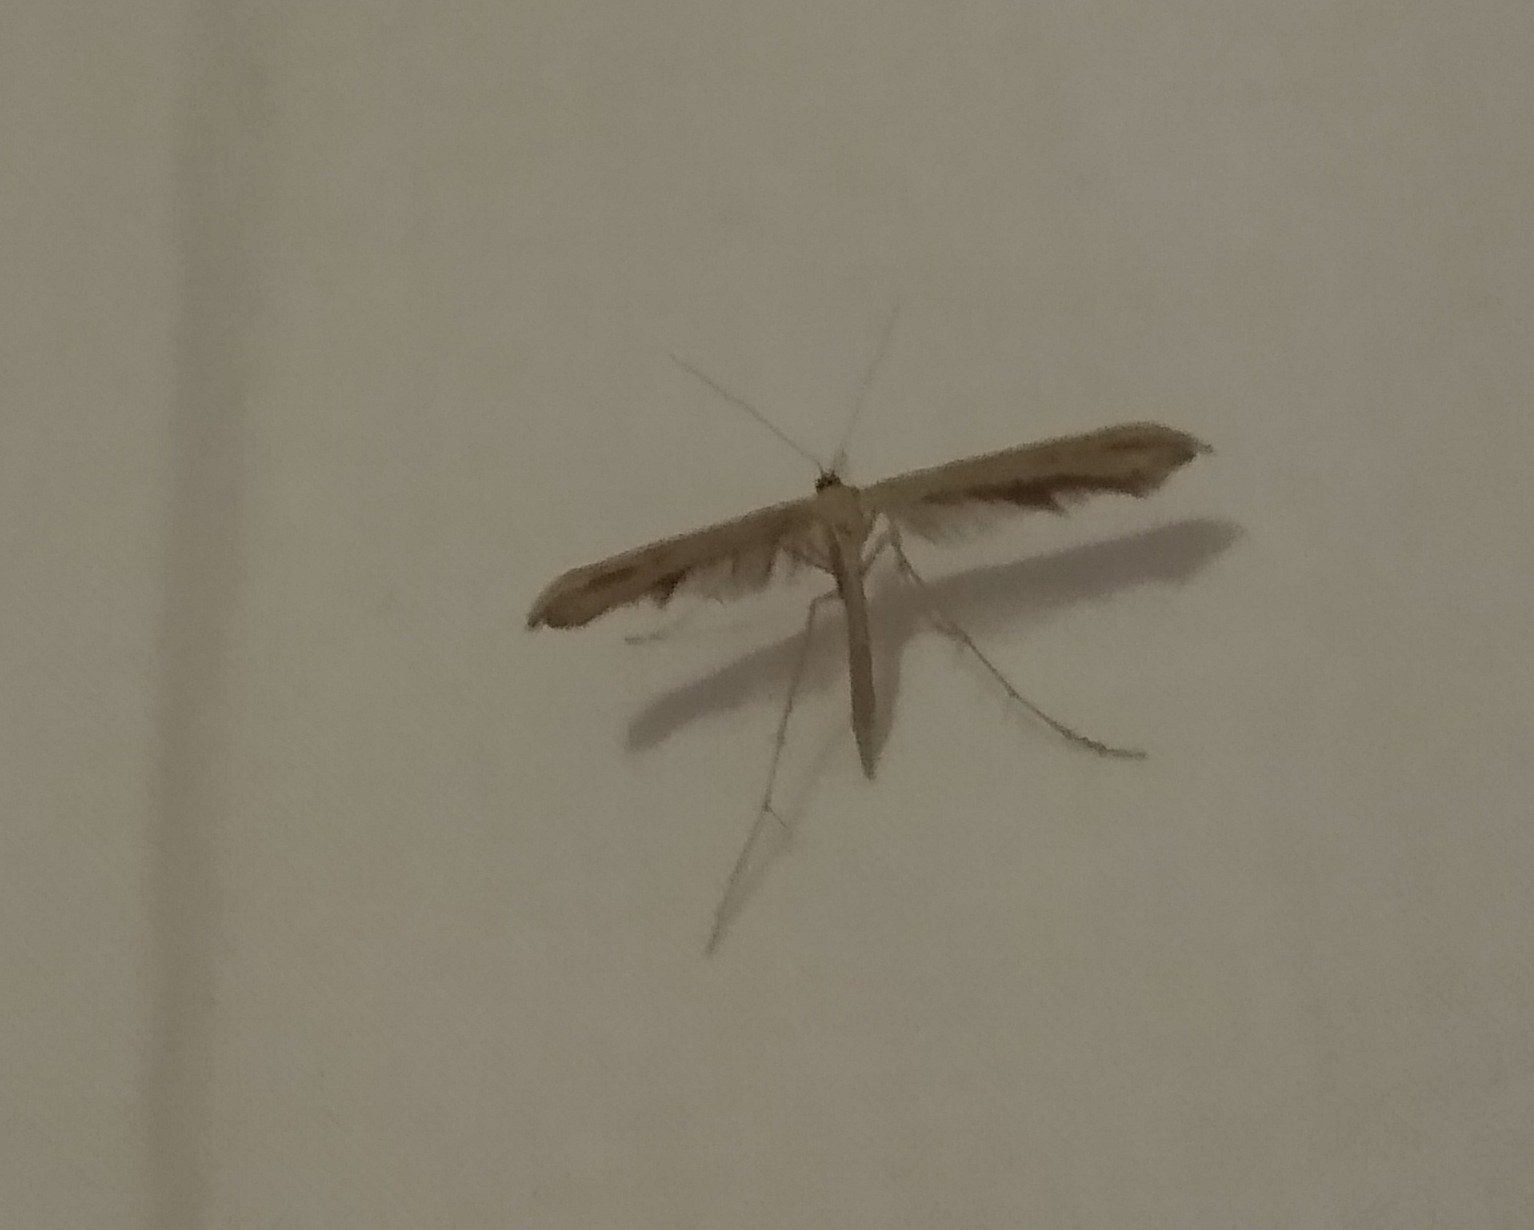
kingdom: Animalia
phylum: Arthropoda
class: Insecta
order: Lepidoptera
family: Pterophoridae
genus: Emmelina
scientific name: Emmelina monodactyla
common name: Snerlefjermøl
